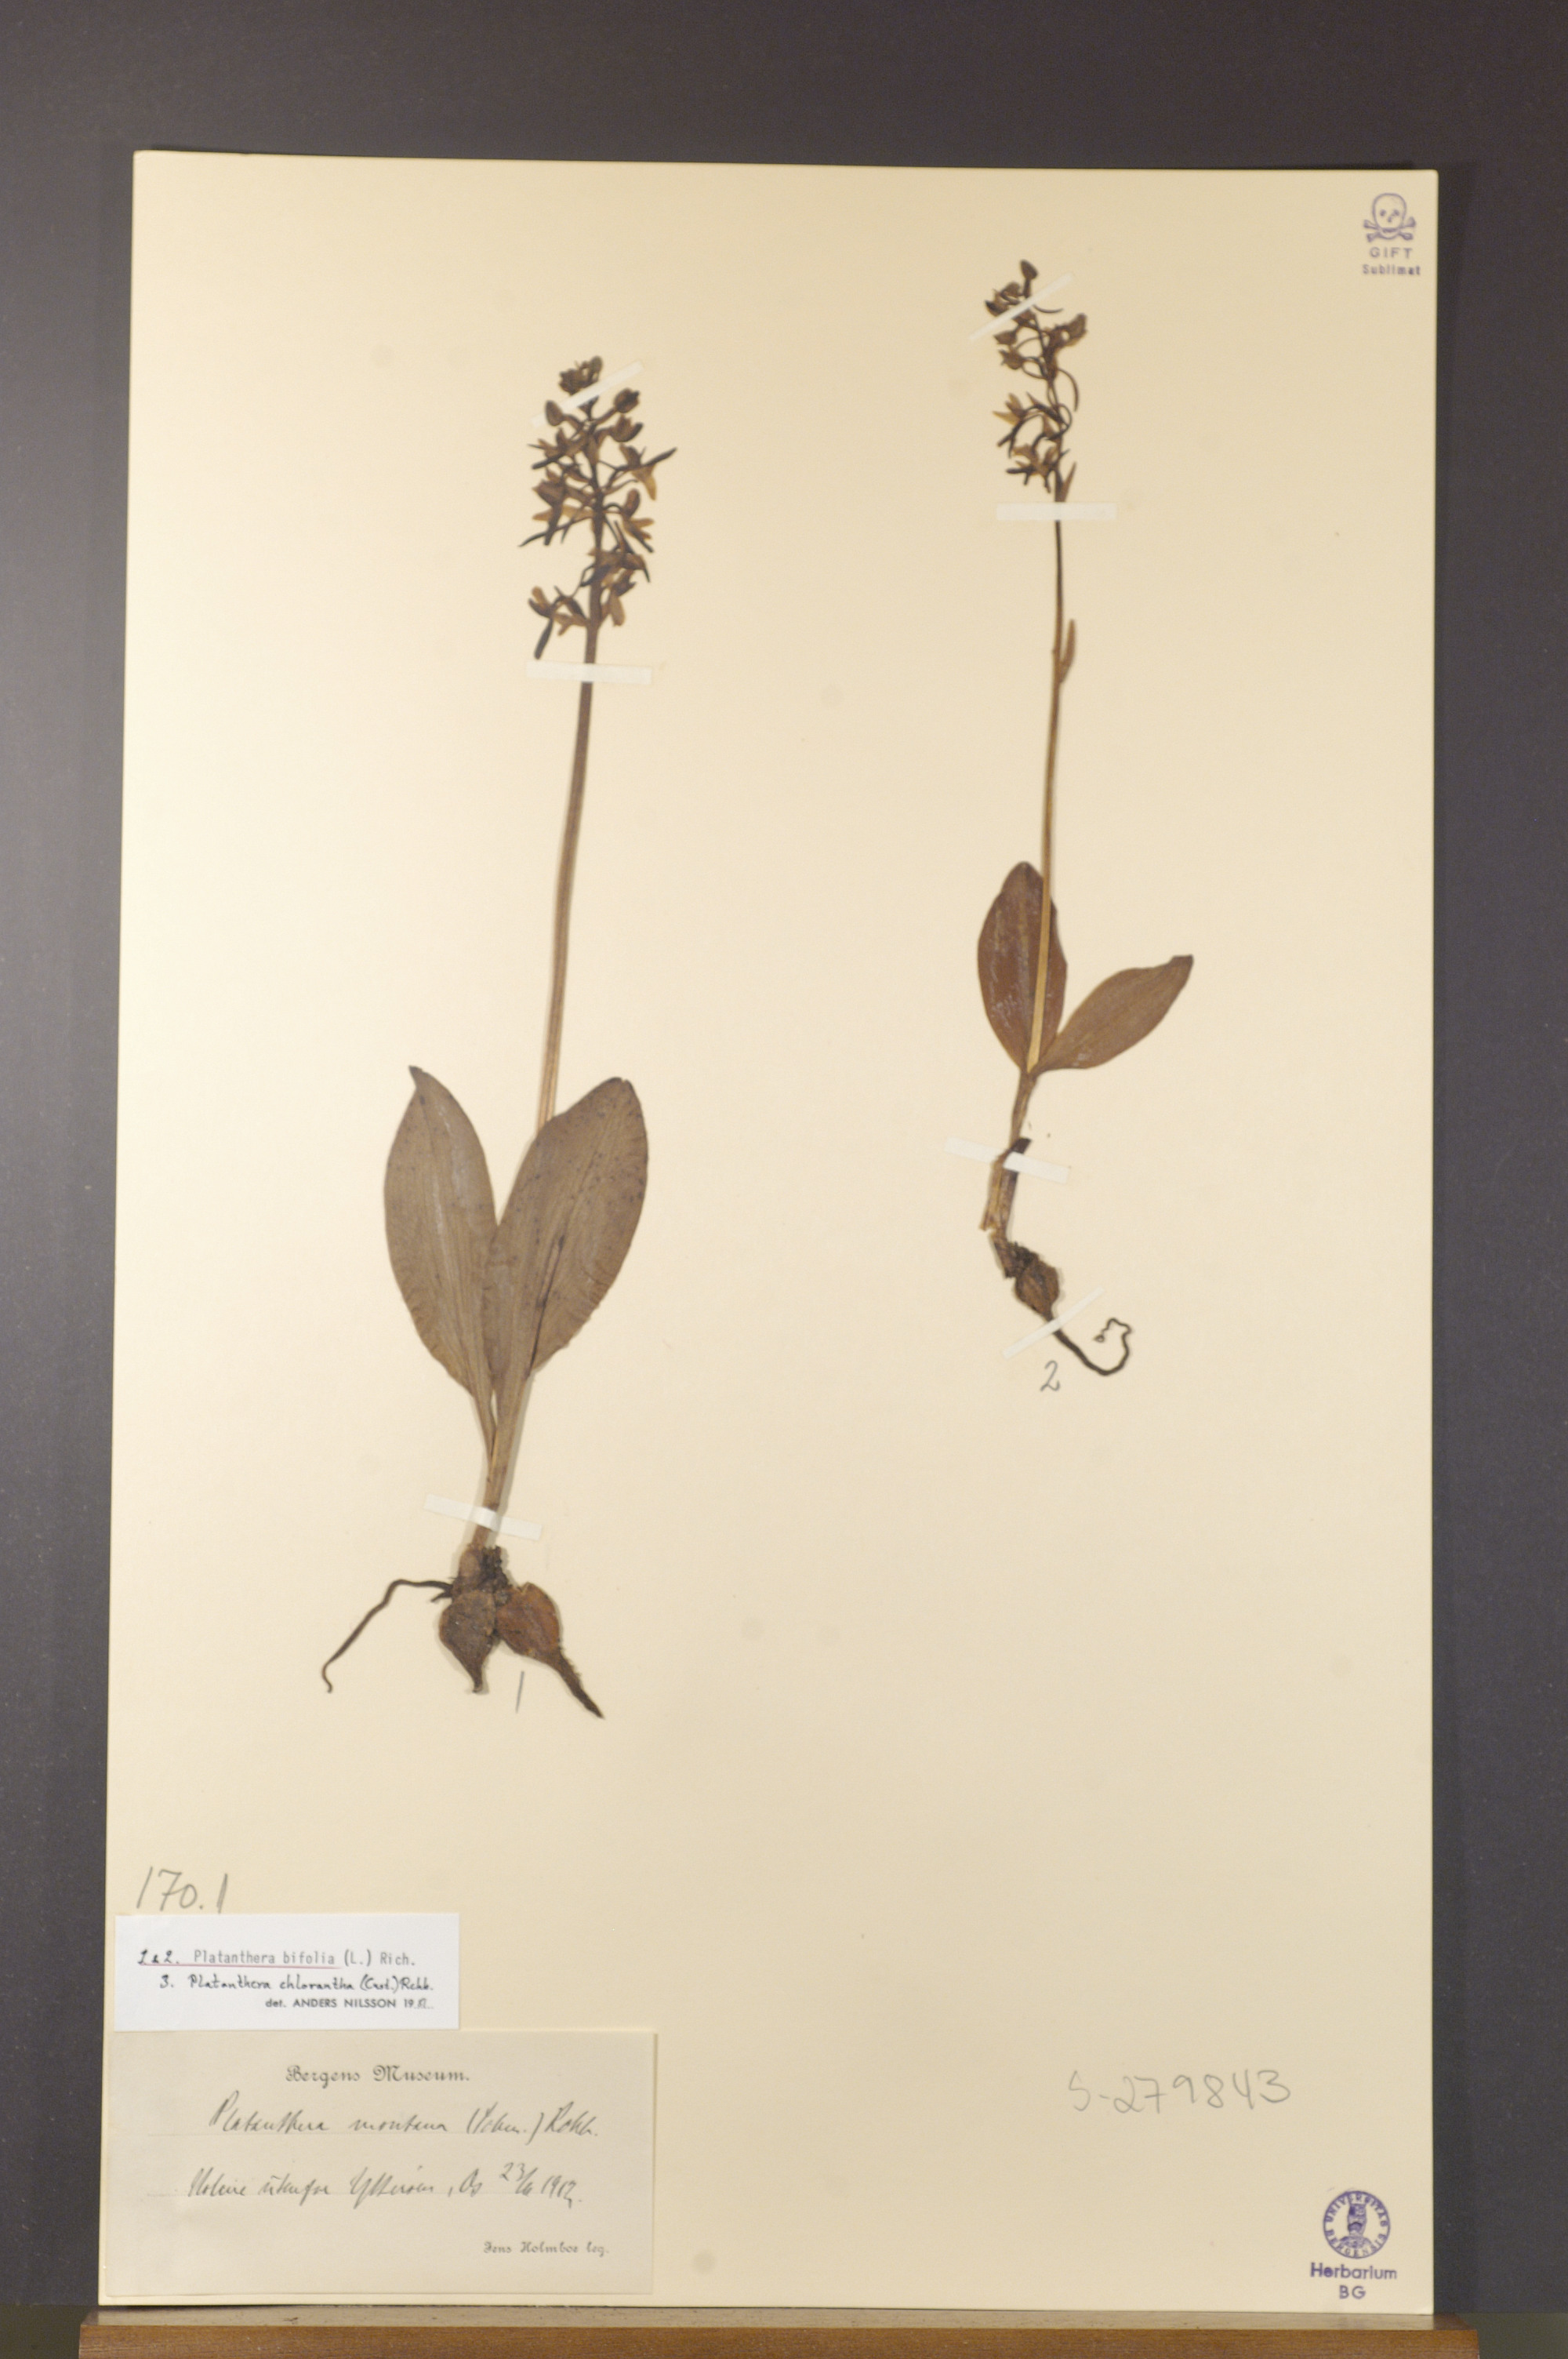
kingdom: Plantae
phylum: Tracheophyta
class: Liliopsida
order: Asparagales
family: Orchidaceae
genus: Platanthera
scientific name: Platanthera bifolia
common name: Lesser butterfly-orchid
